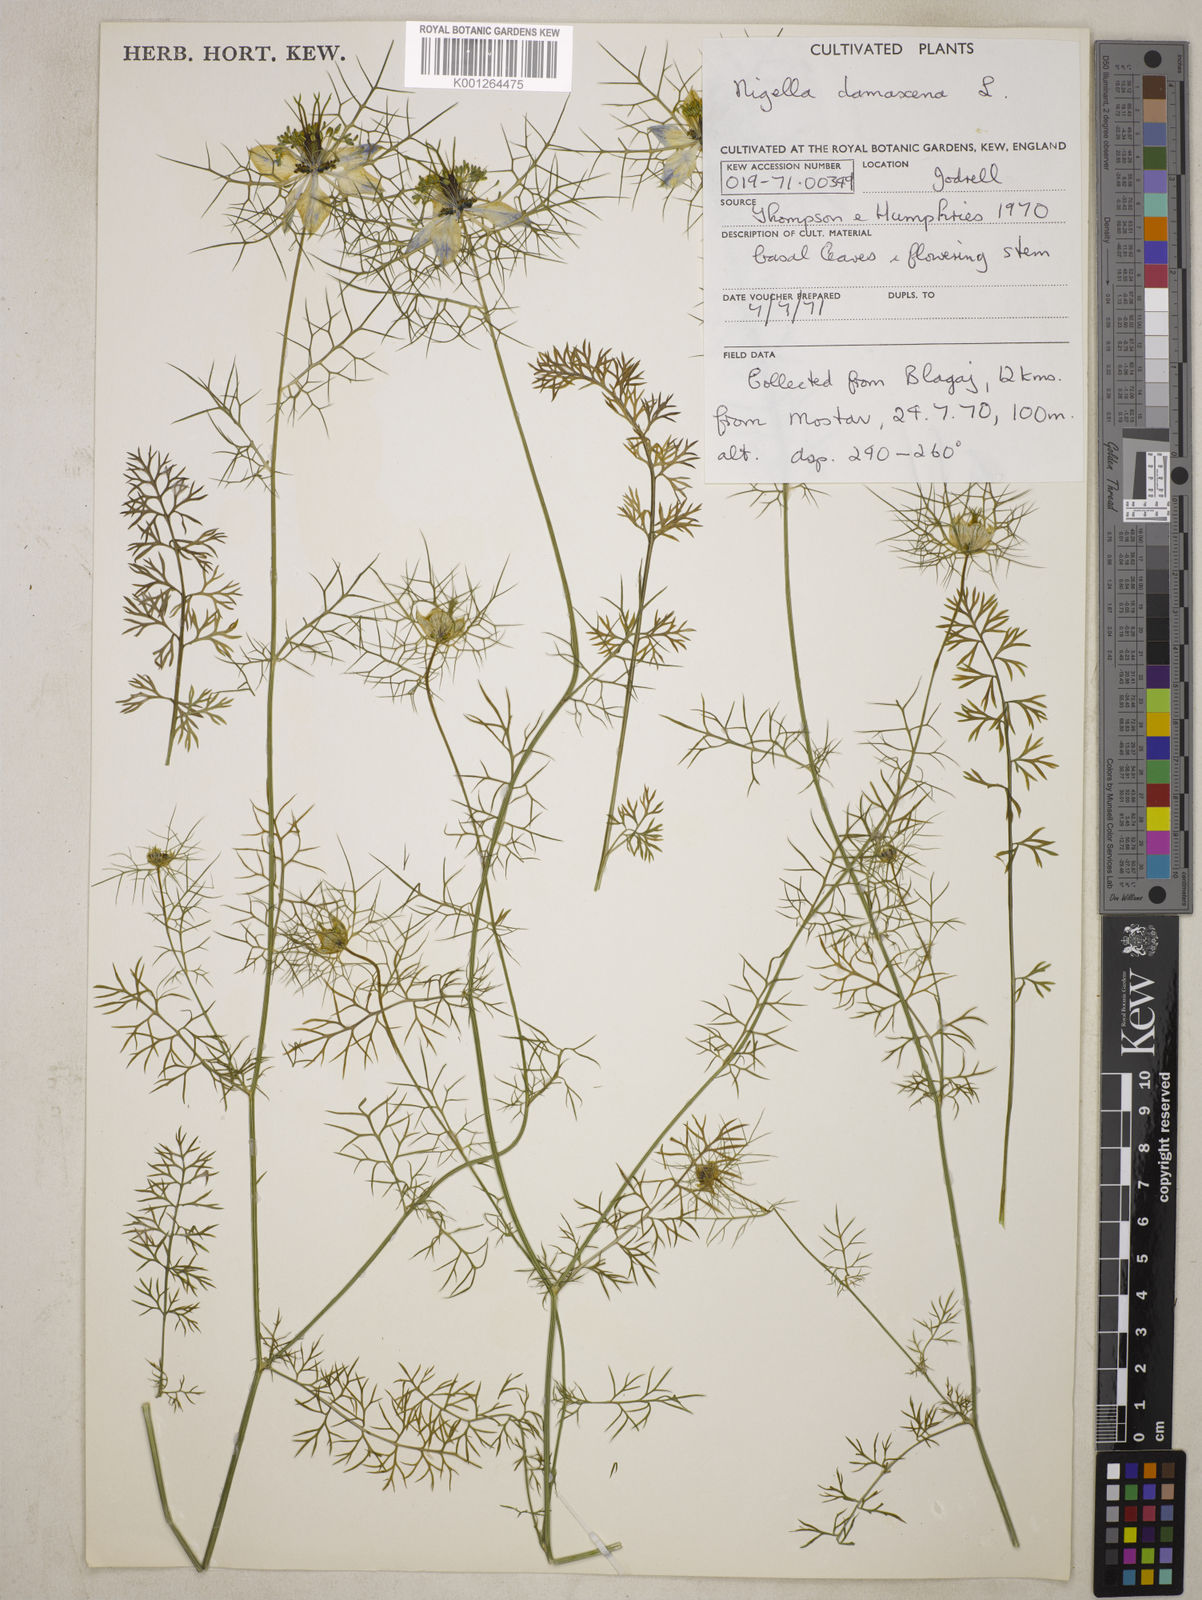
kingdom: Plantae
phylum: Tracheophyta
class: Magnoliopsida
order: Ranunculales
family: Ranunculaceae
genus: Nigella
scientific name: Nigella damascena
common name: Love-in-a-mist
